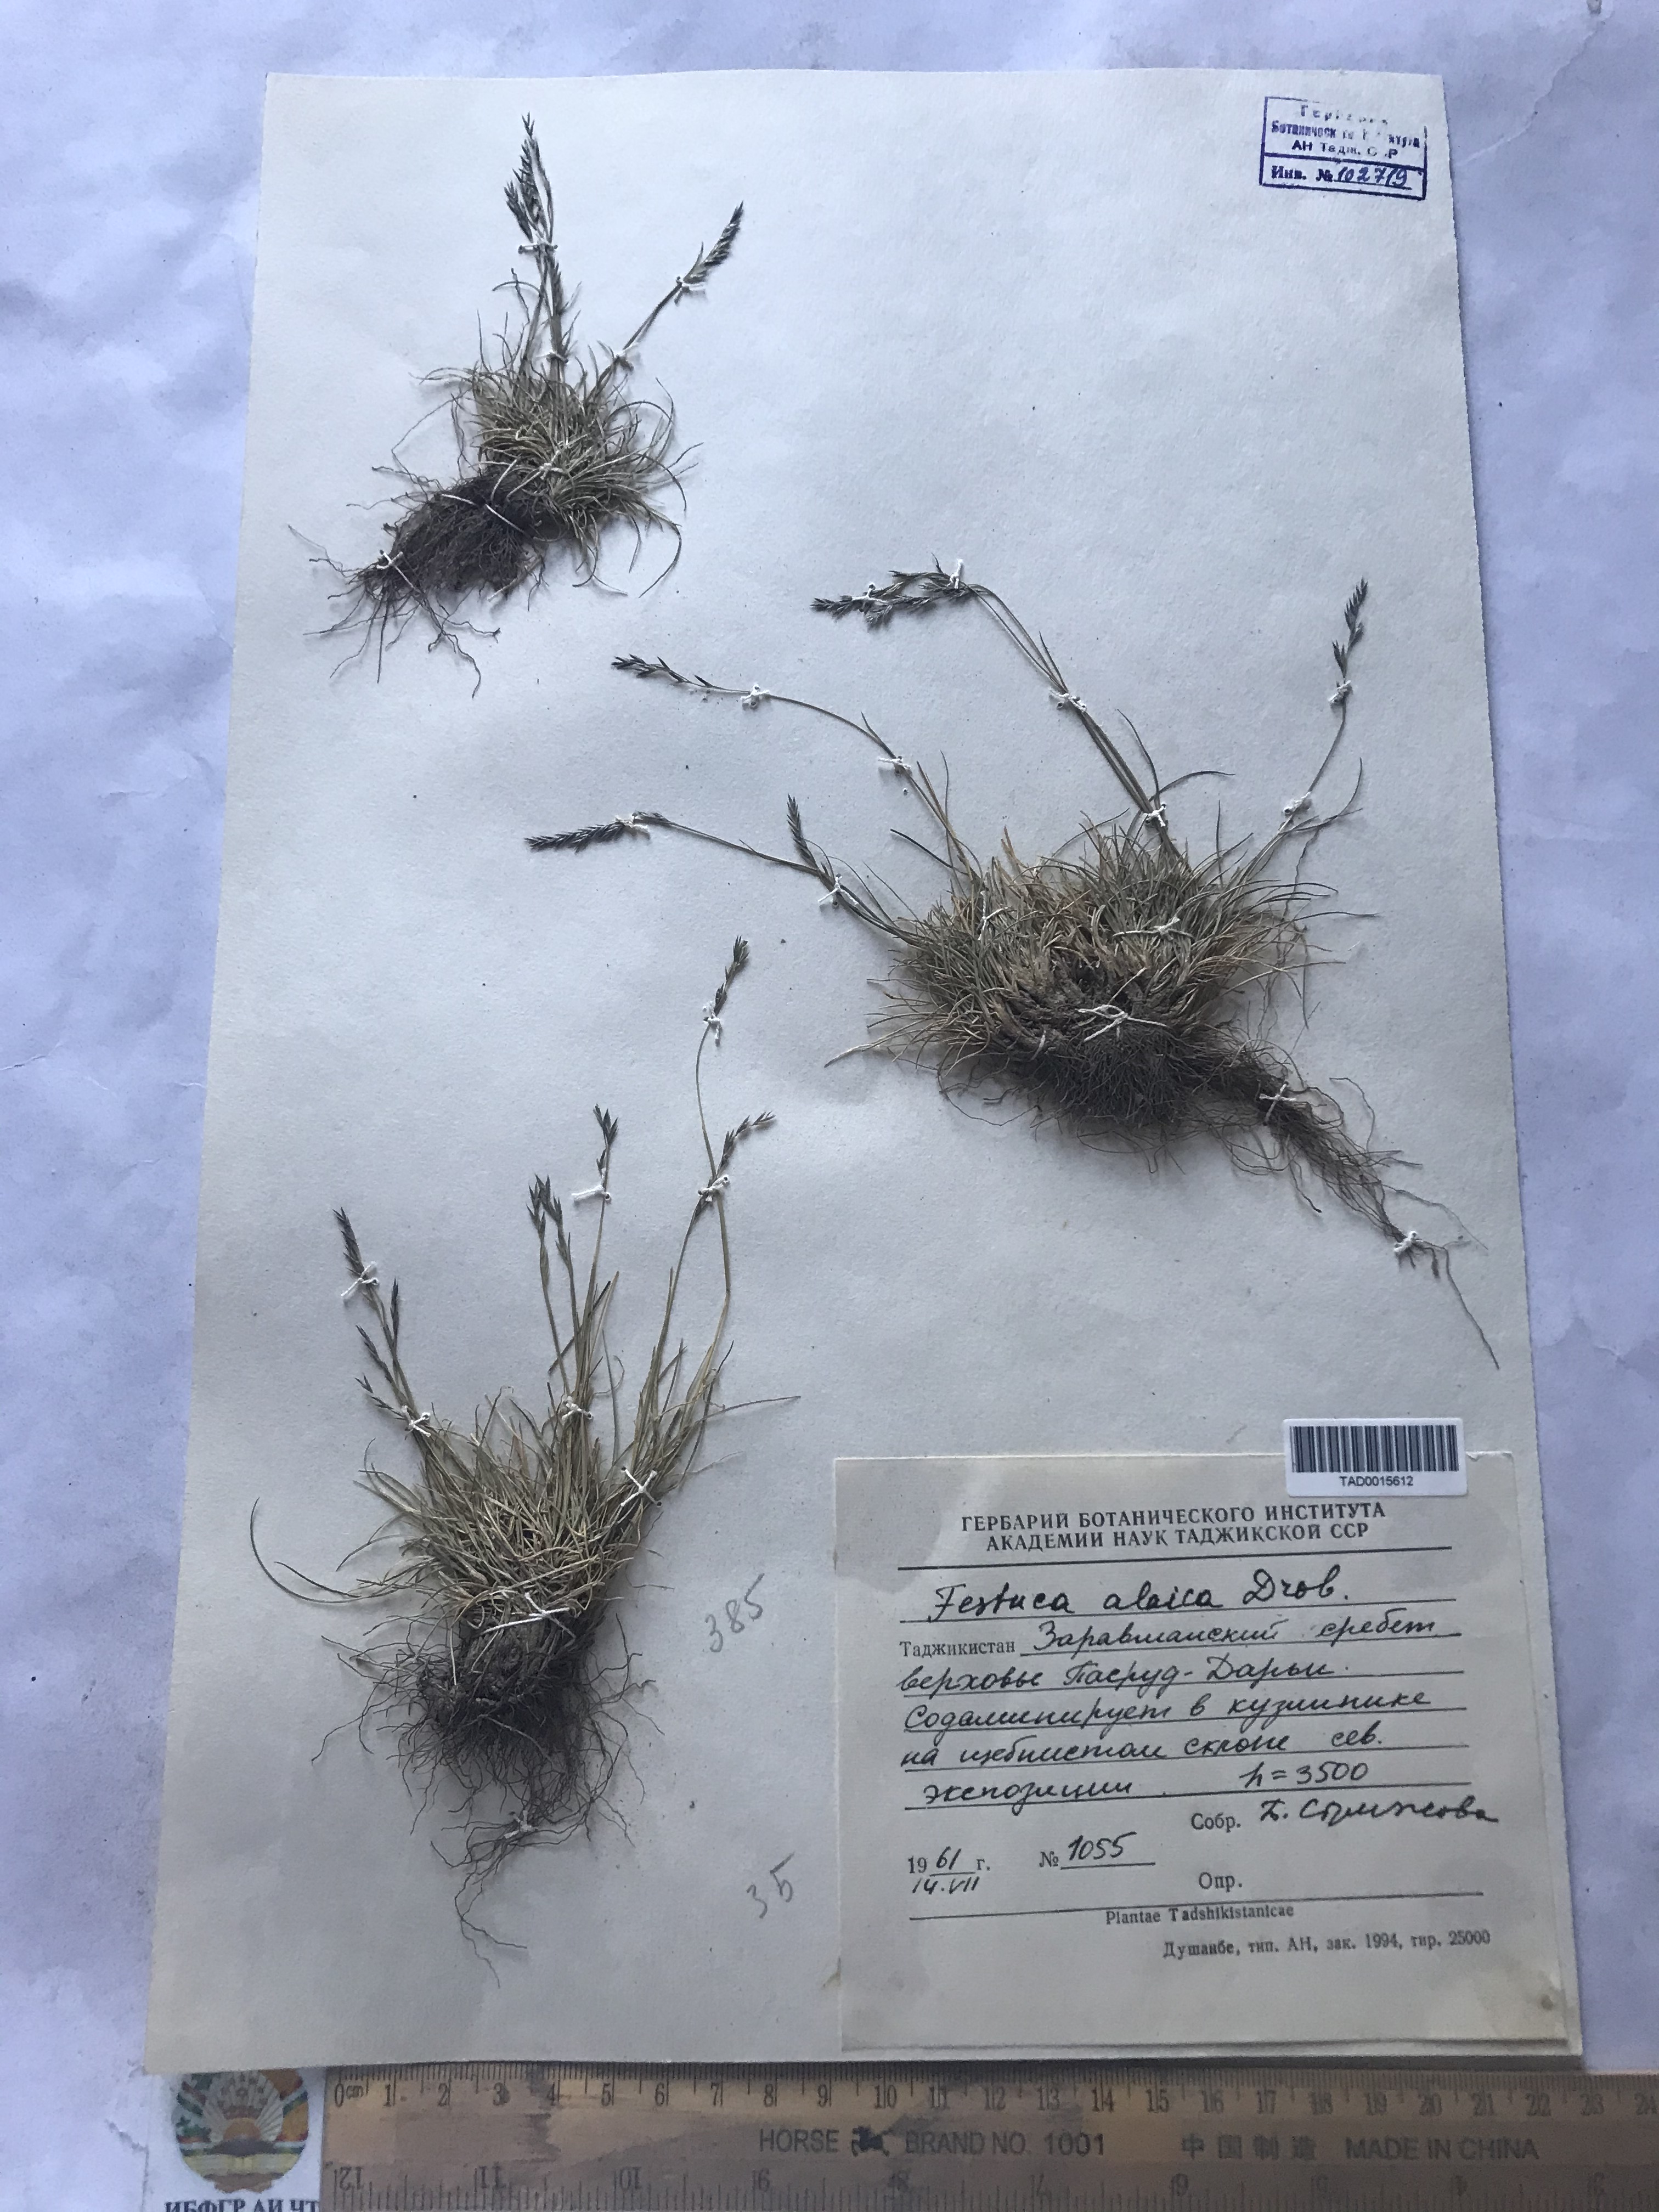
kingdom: Plantae
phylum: Tracheophyta
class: Liliopsida
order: Poales
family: Poaceae
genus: Festuca
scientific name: Festuca alaica
